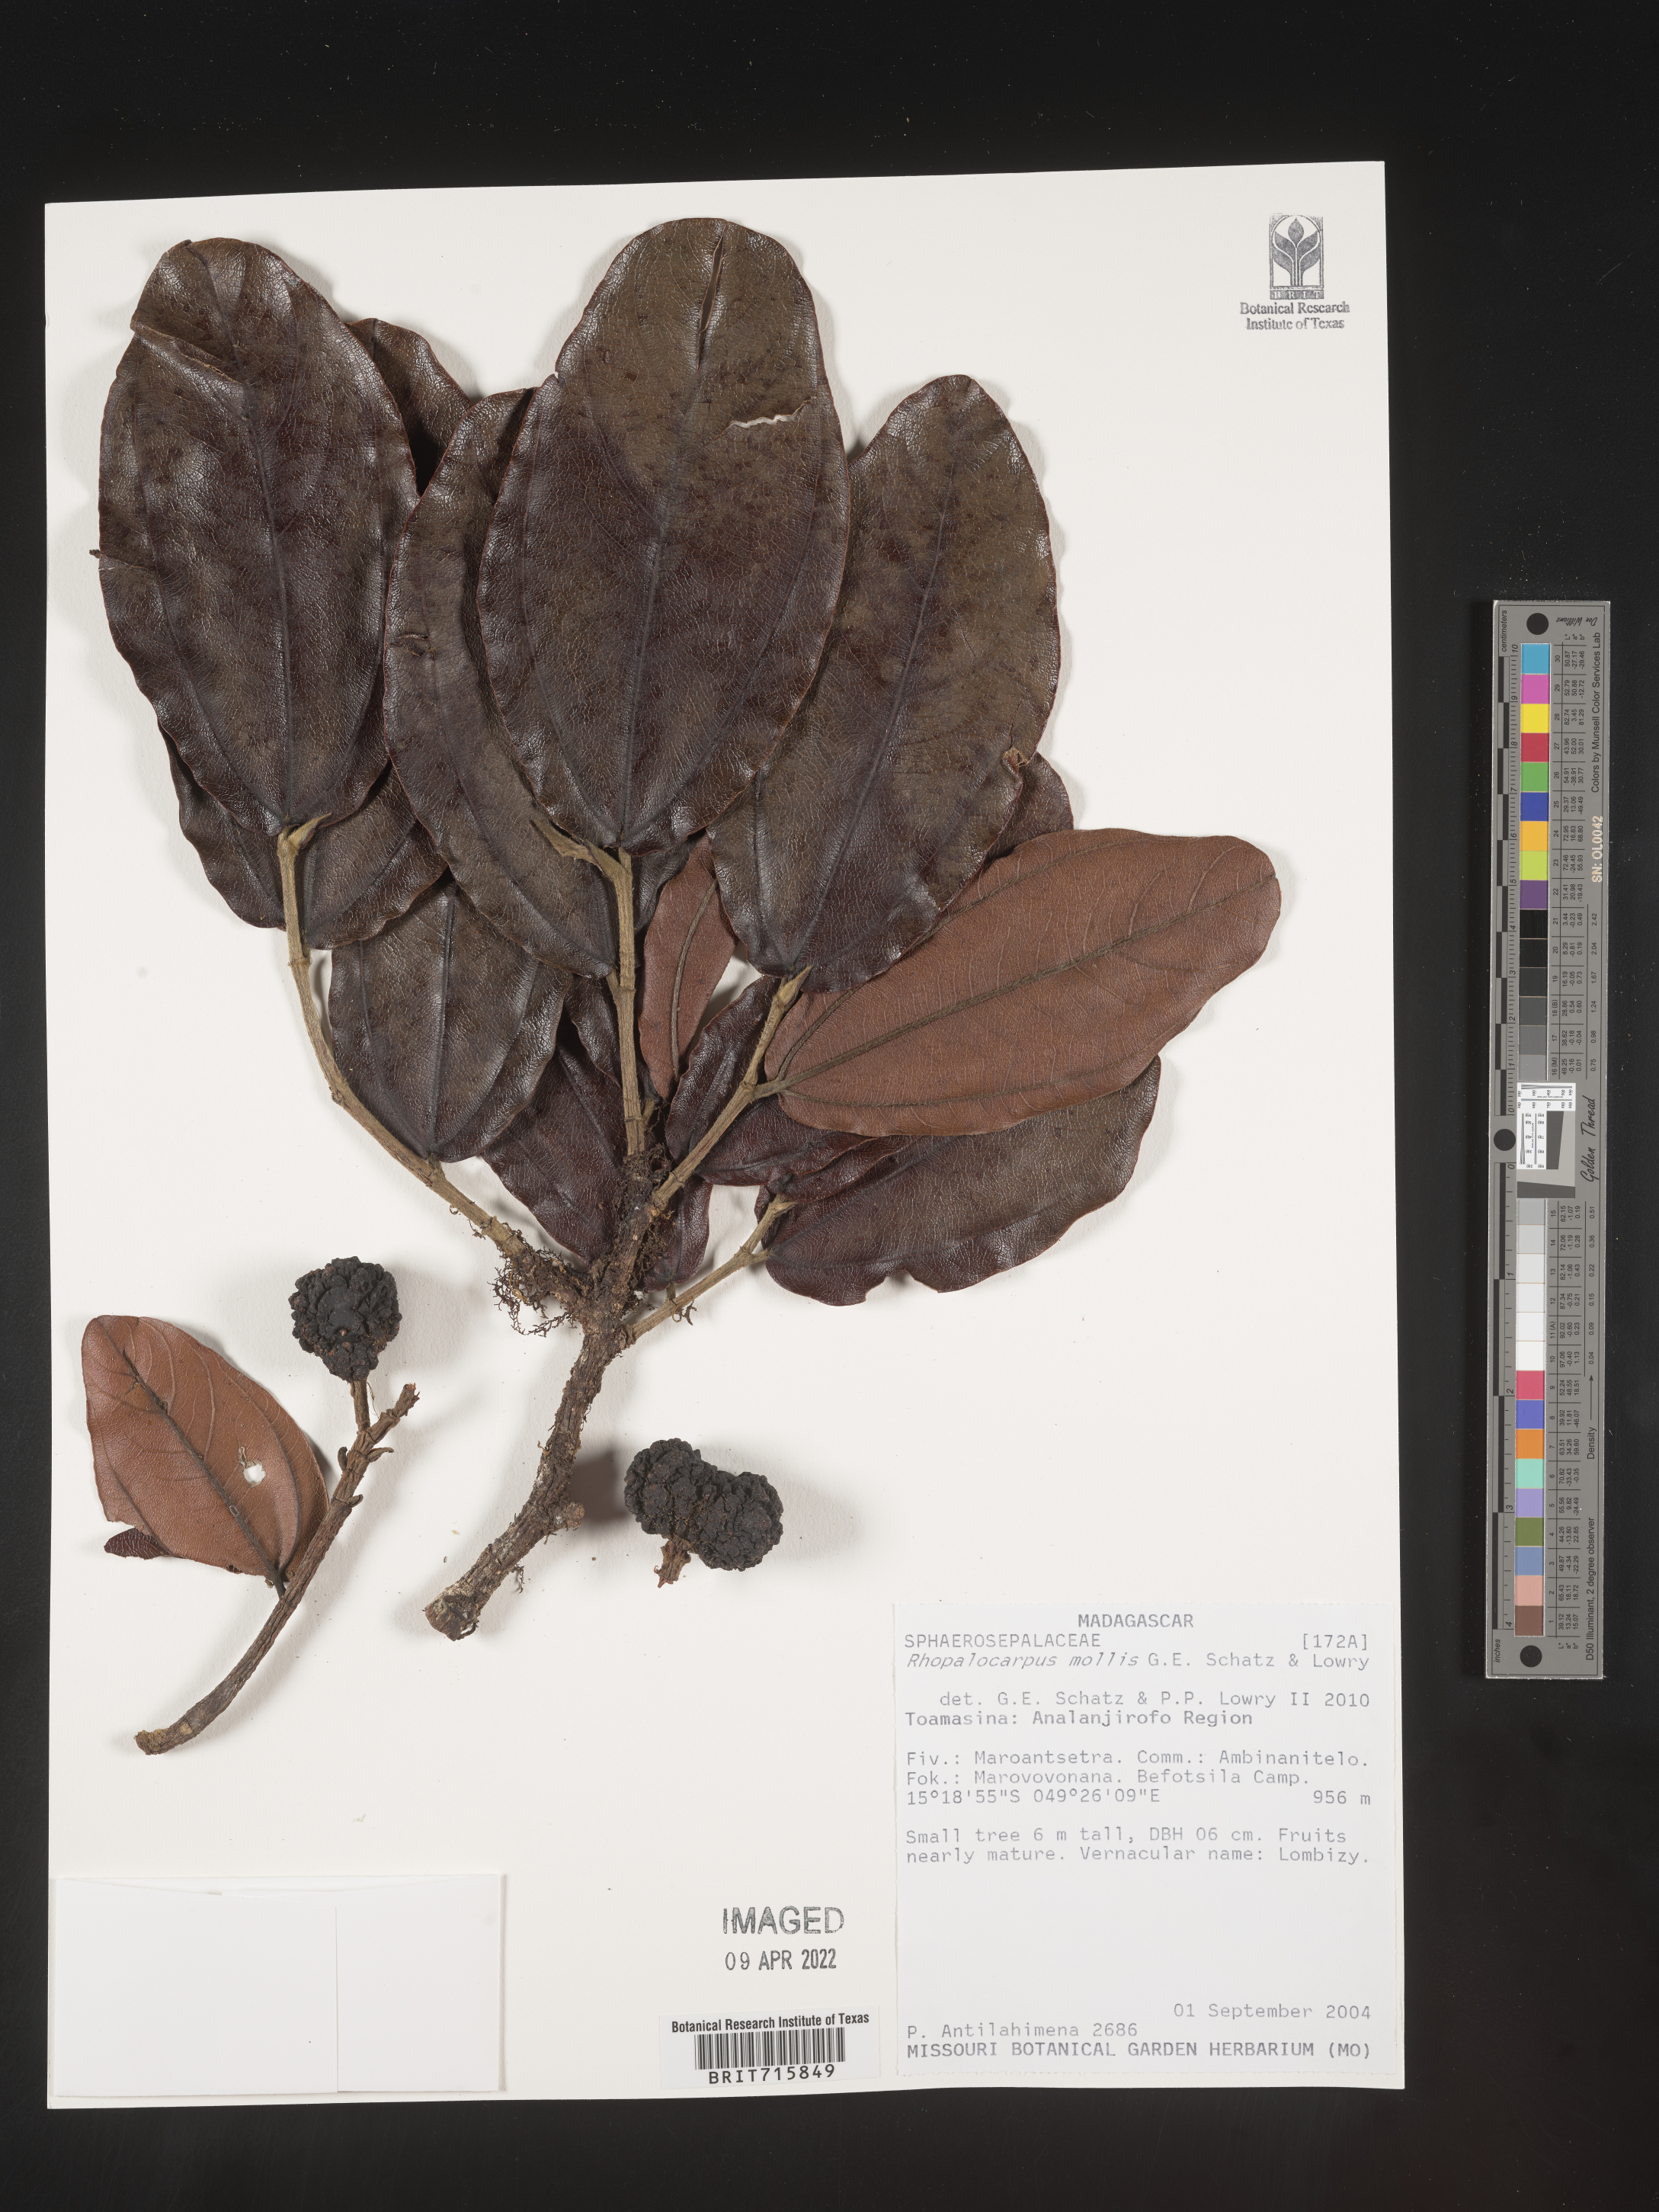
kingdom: Plantae
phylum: Tracheophyta
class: Magnoliopsida
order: Malvales
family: Sphaerosepalaceae
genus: Rhopalocarpus
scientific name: Rhopalocarpus
